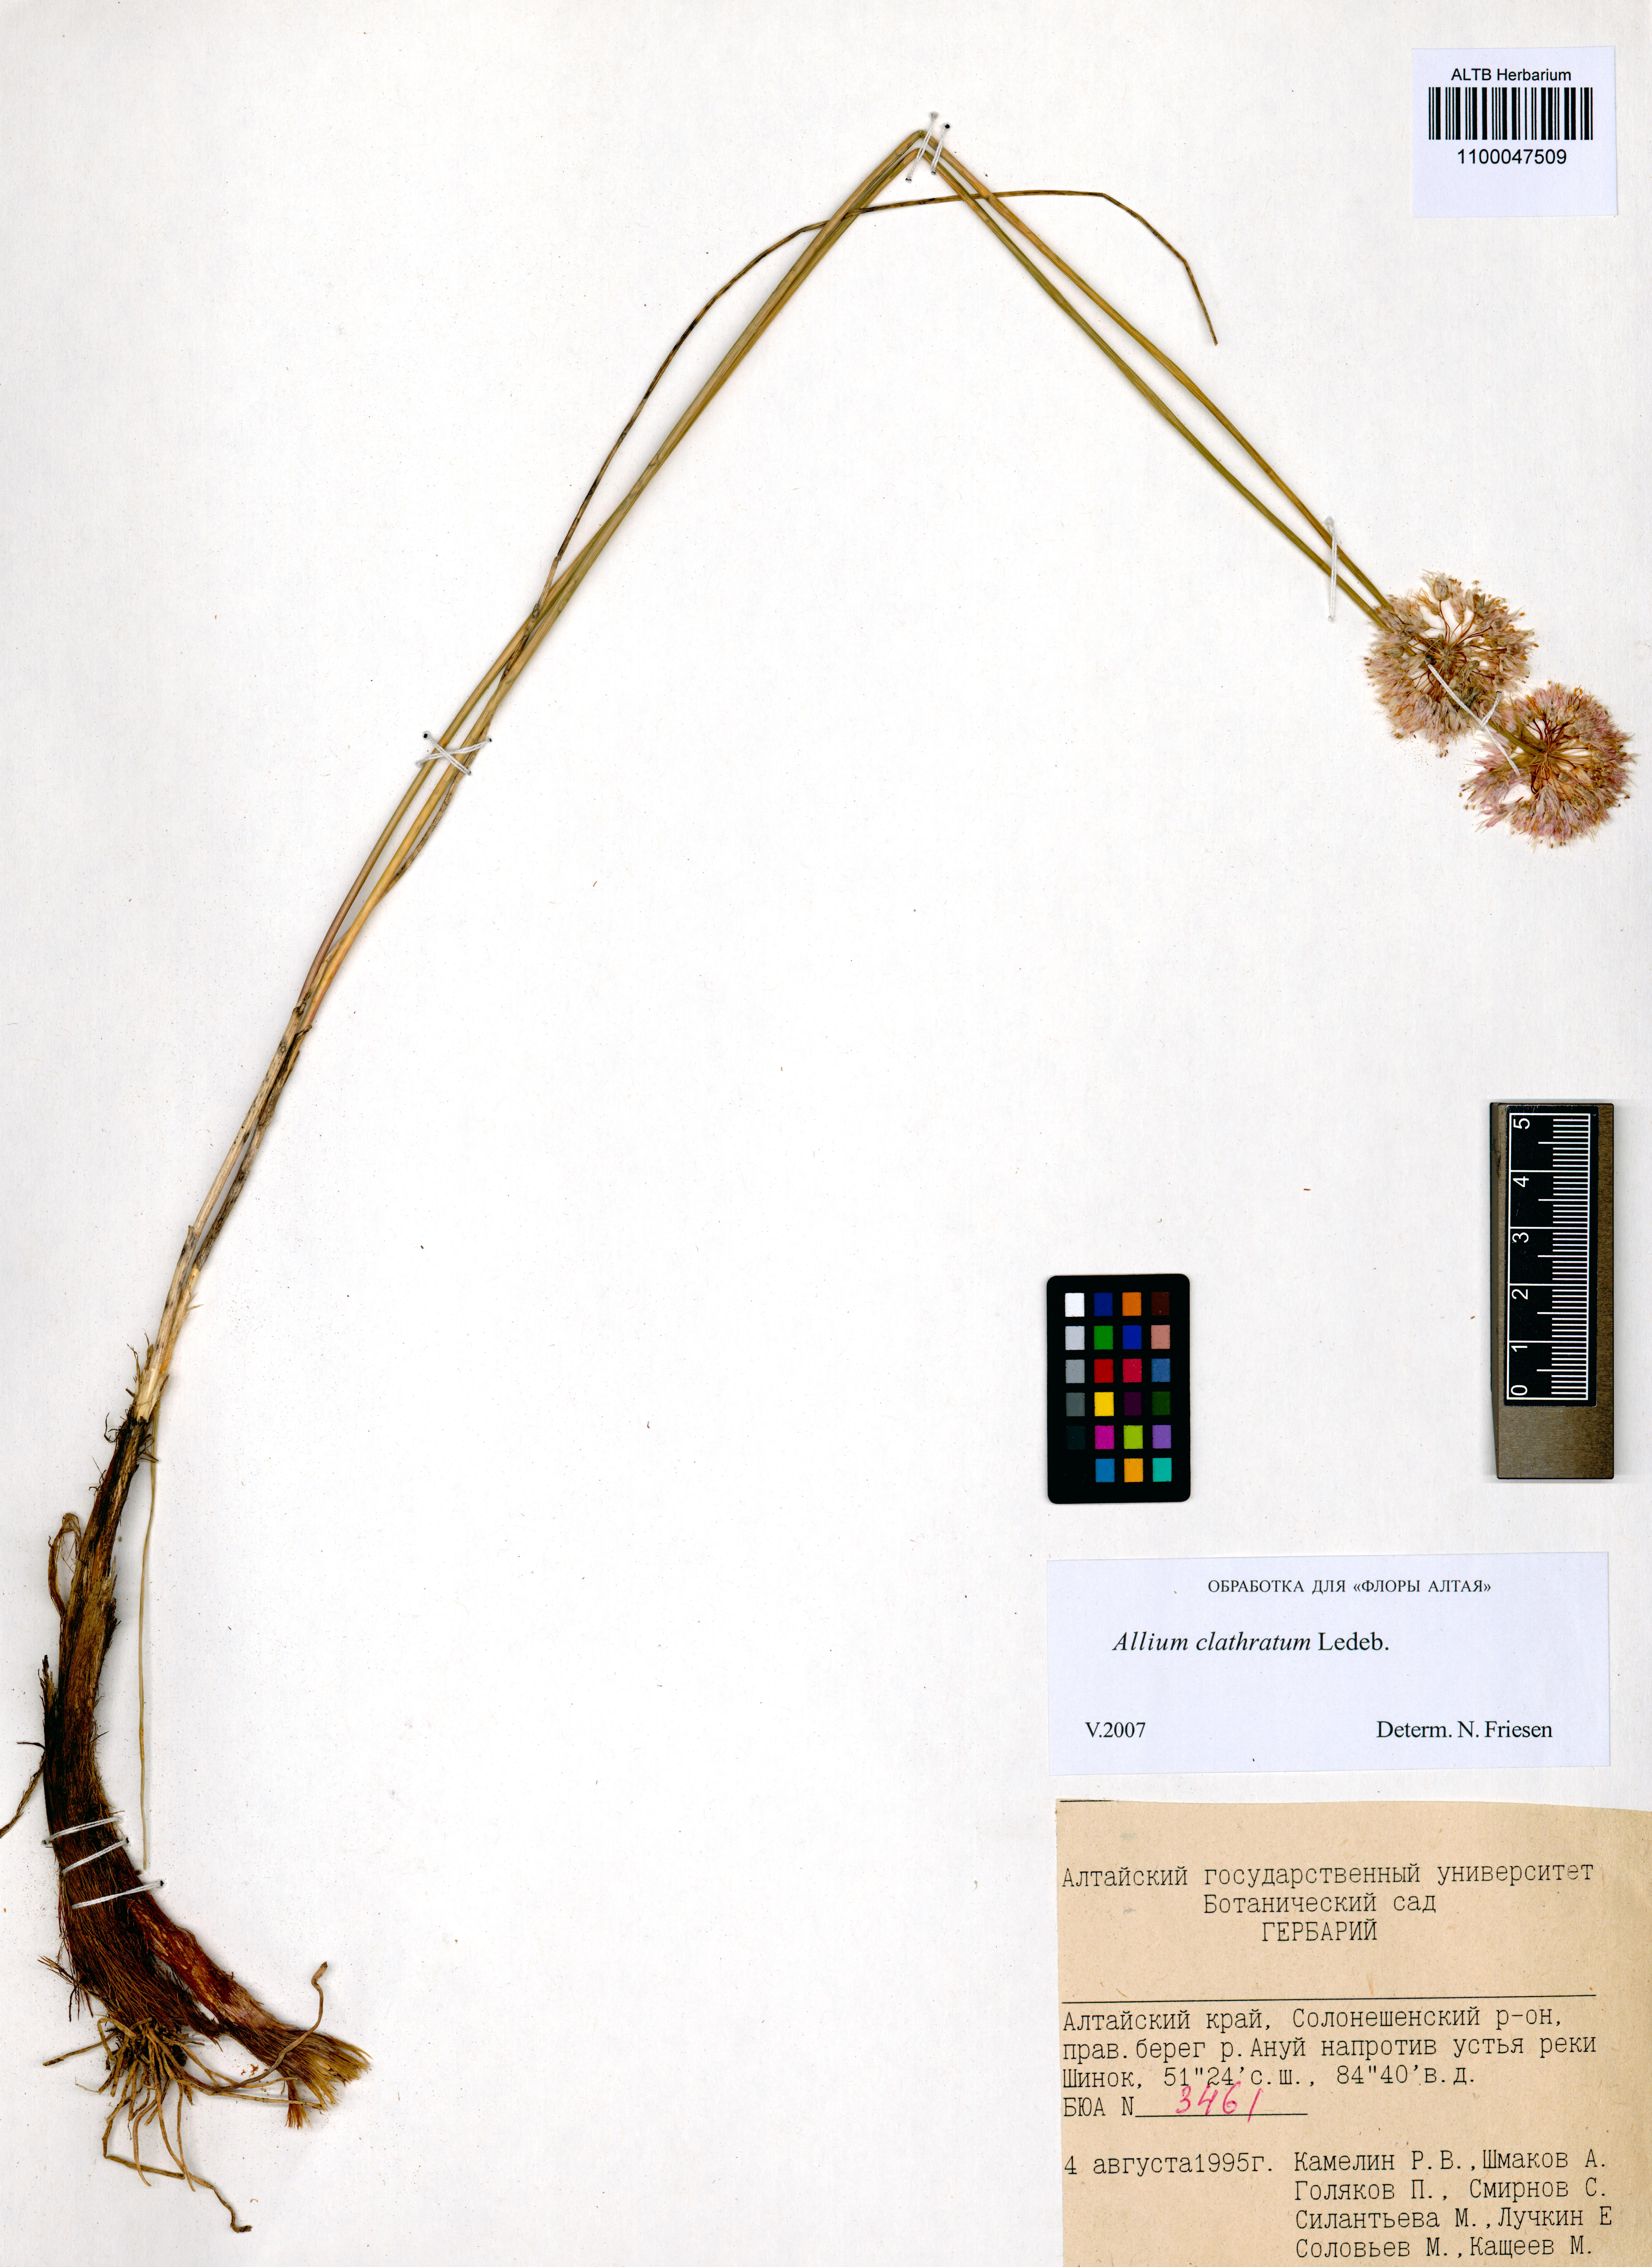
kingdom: Plantae
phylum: Tracheophyta
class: Liliopsida
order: Asparagales
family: Amaryllidaceae
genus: Allium
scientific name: Allium clathratum
